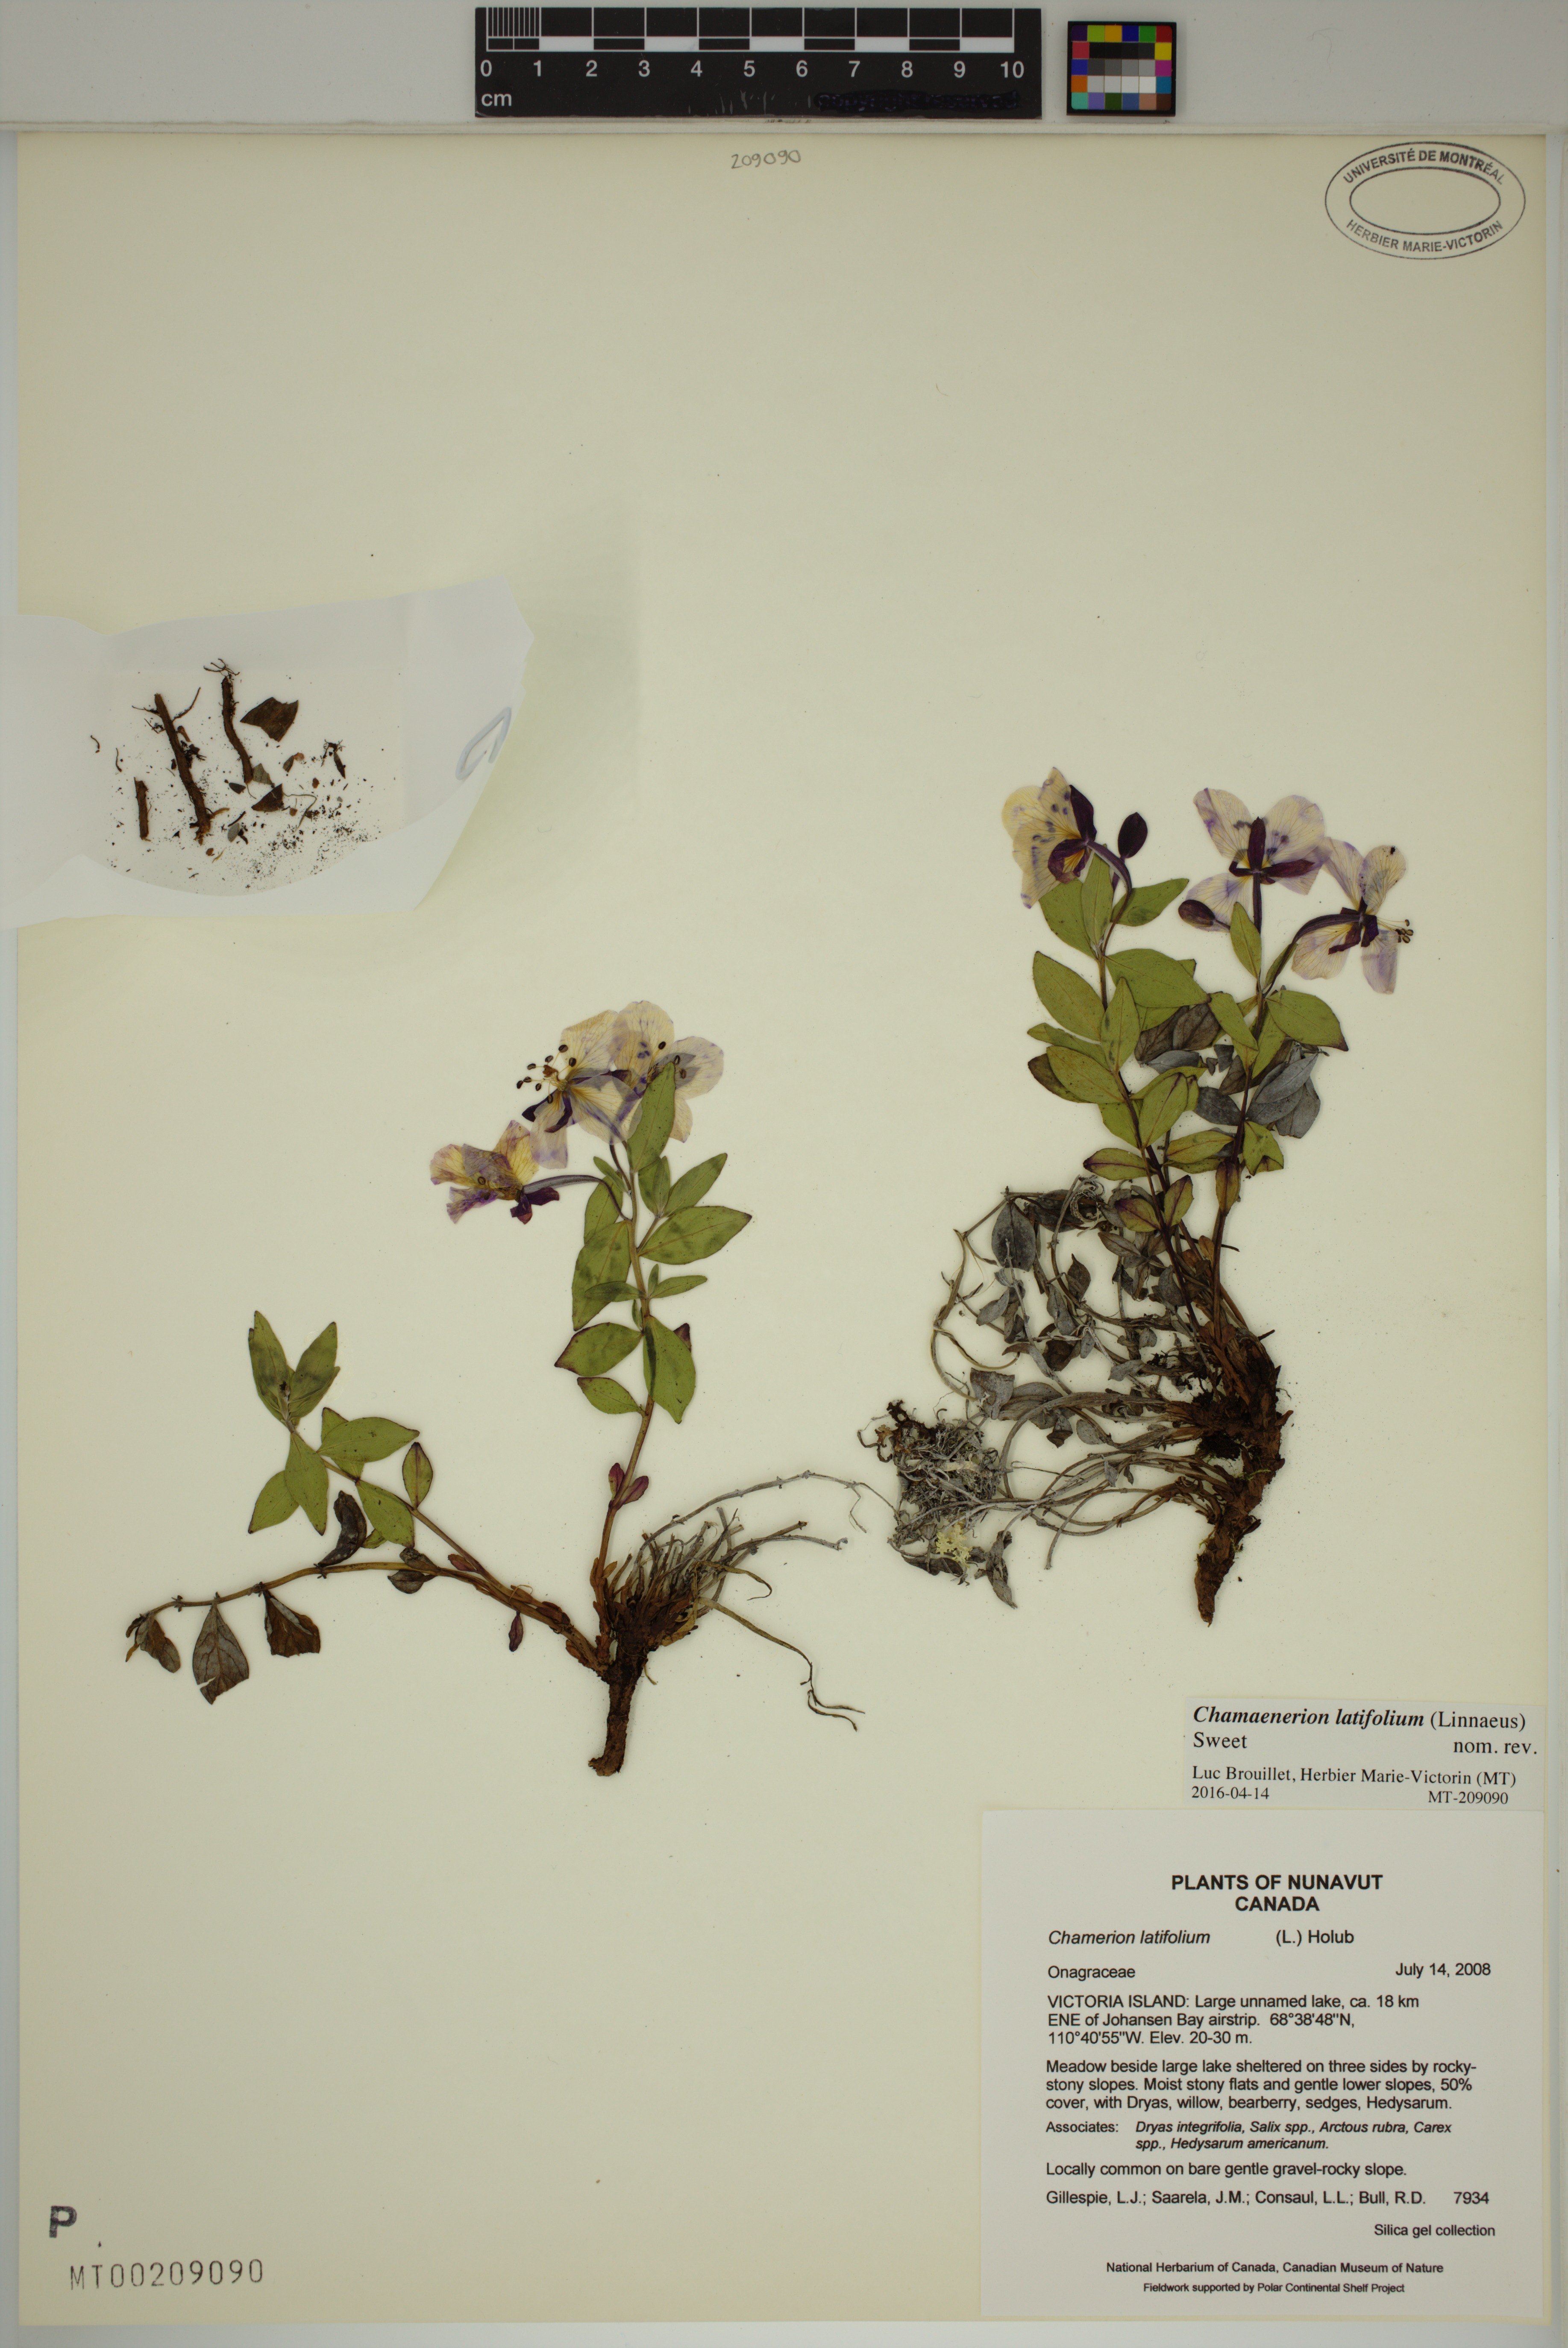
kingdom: Plantae
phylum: Tracheophyta
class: Magnoliopsida
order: Myrtales
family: Onagraceae
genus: Chamaenerion
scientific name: Chamaenerion latifolium
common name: Dwarf fireweed
